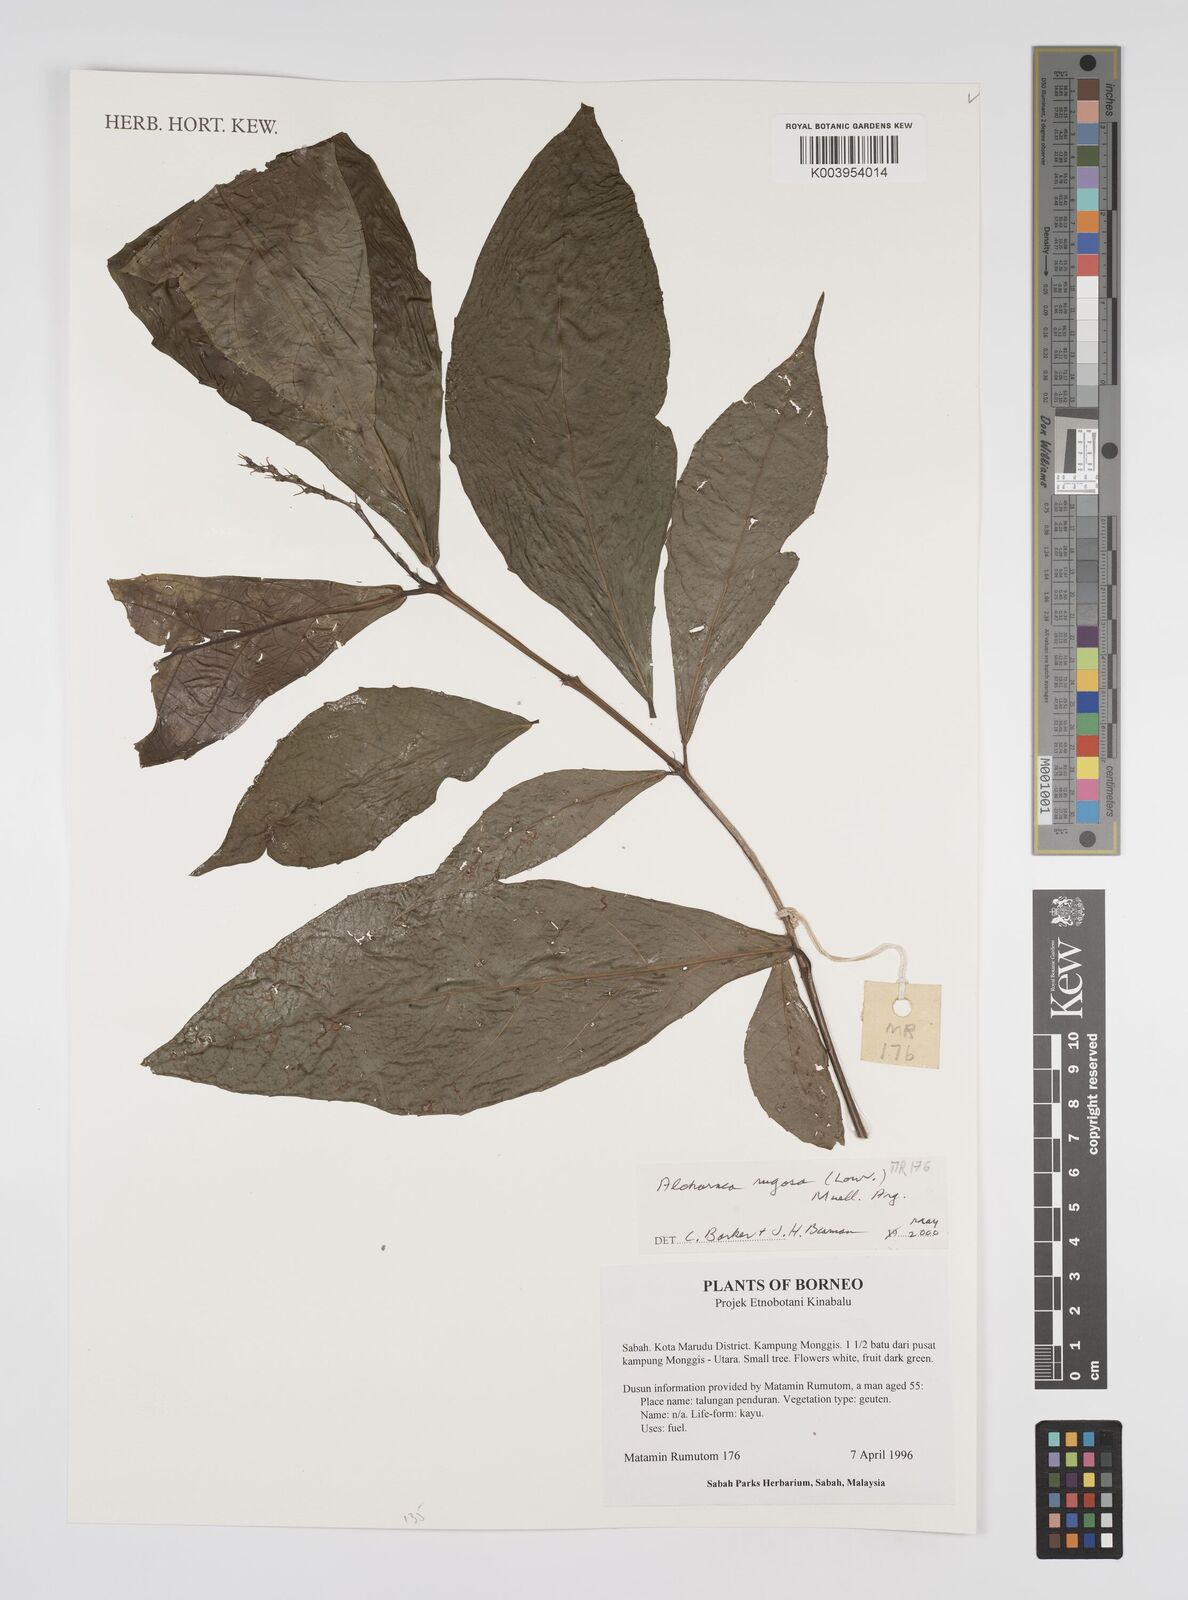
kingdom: Plantae
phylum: Tracheophyta
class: Magnoliopsida
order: Malpighiales
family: Euphorbiaceae
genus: Alchornea
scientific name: Alchornea rugosa
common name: Alchorntree
